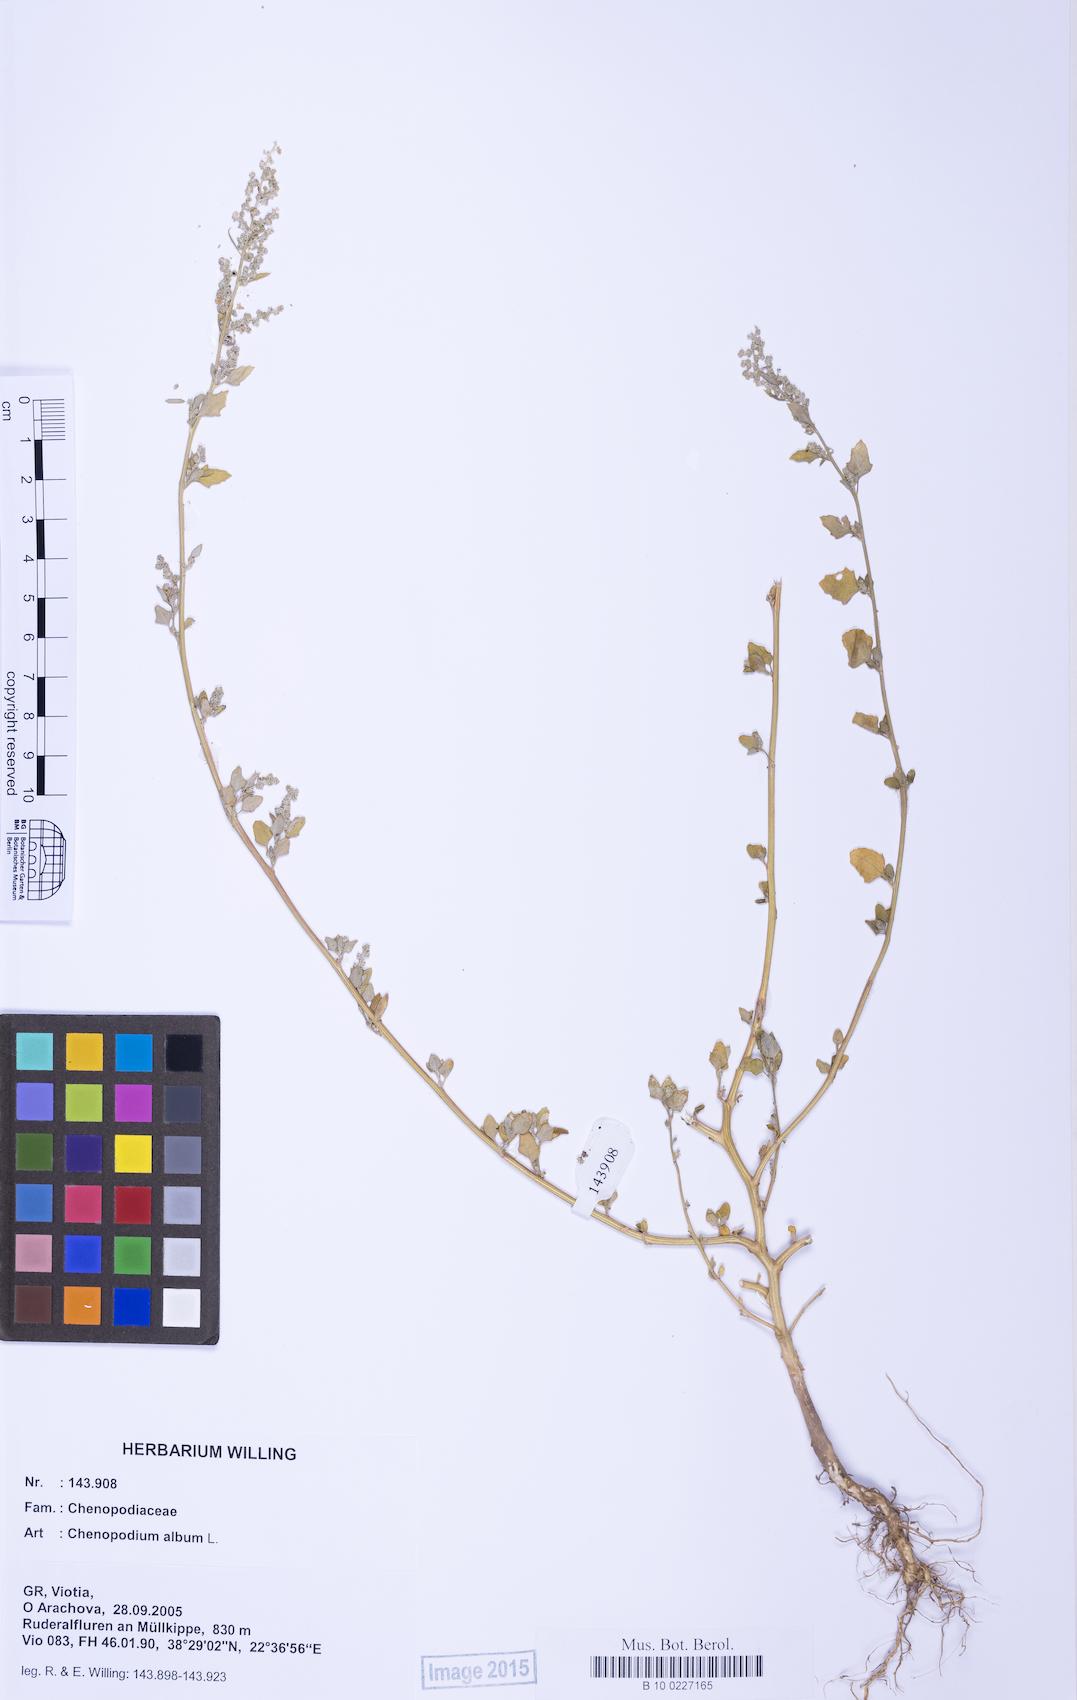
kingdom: Plantae
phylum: Tracheophyta
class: Magnoliopsida
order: Caryophyllales
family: Amaranthaceae
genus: Chenopodium
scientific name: Chenopodium album
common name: Fat-hen
